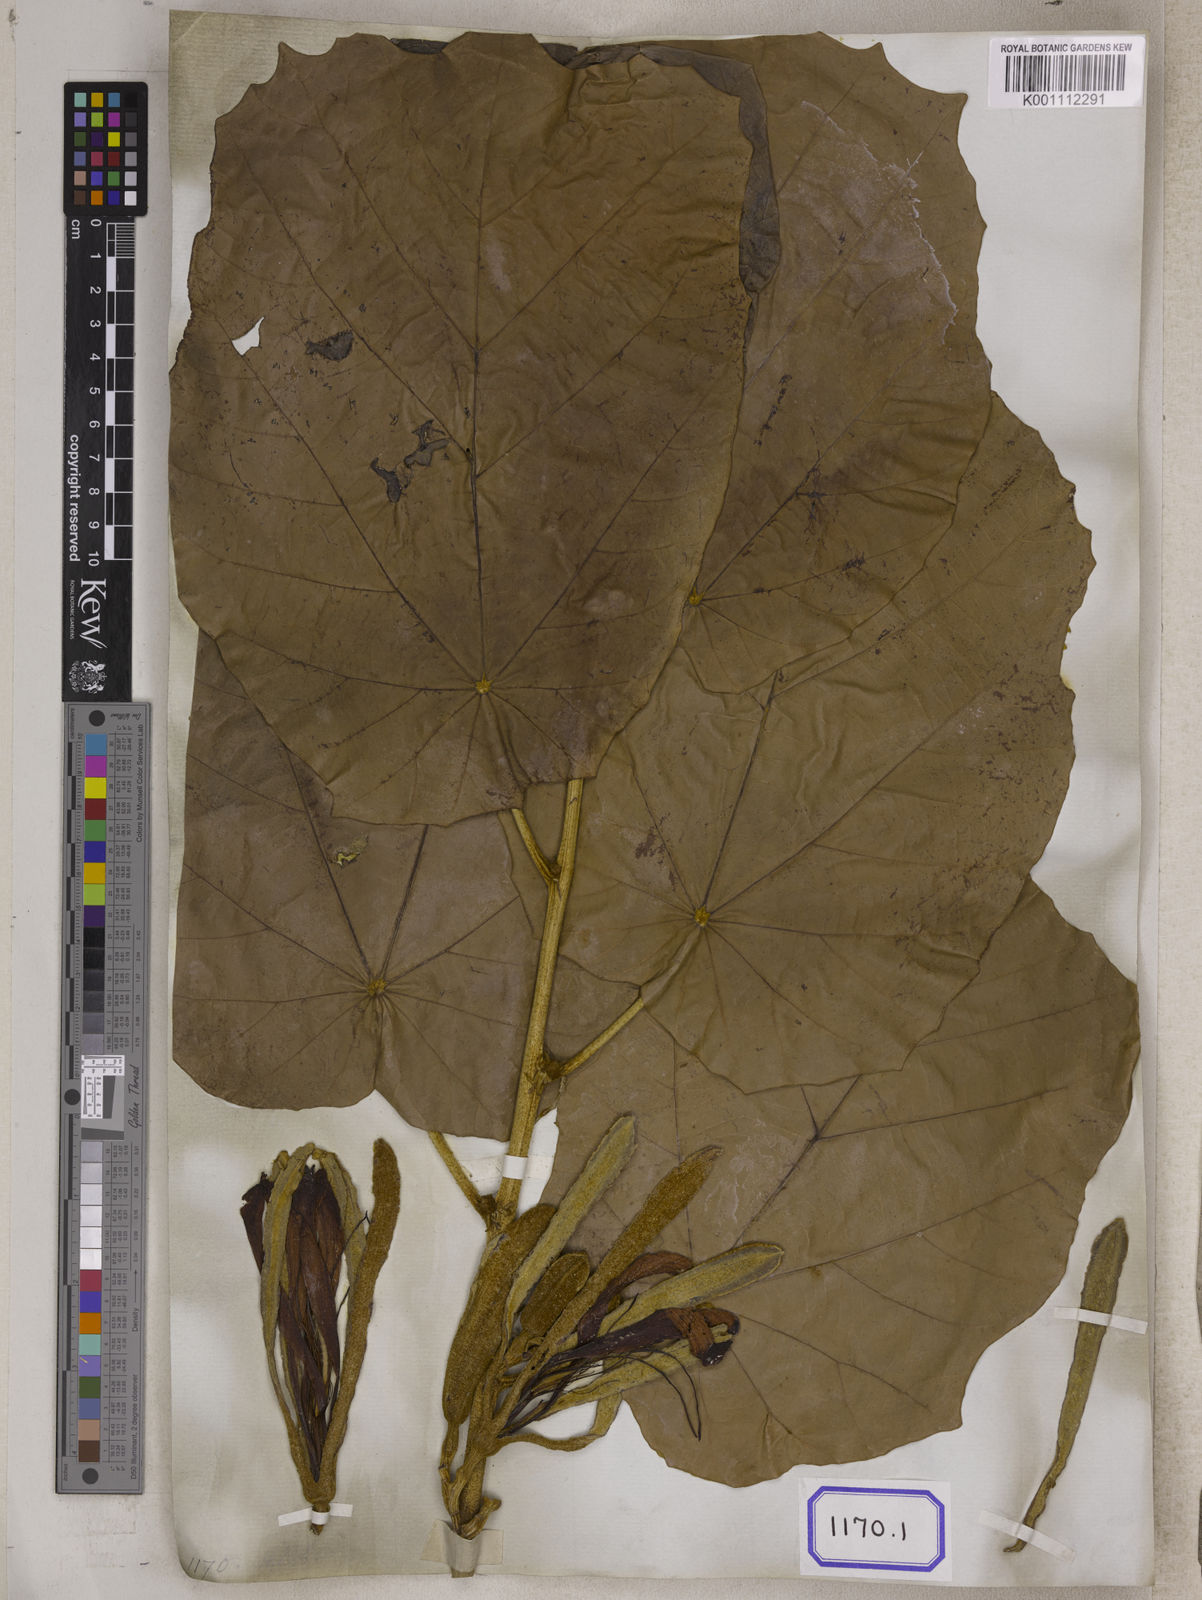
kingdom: Plantae
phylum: Tracheophyta
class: Magnoliopsida
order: Malvales
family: Malvaceae
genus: Pterospermum
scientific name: Pterospermum
